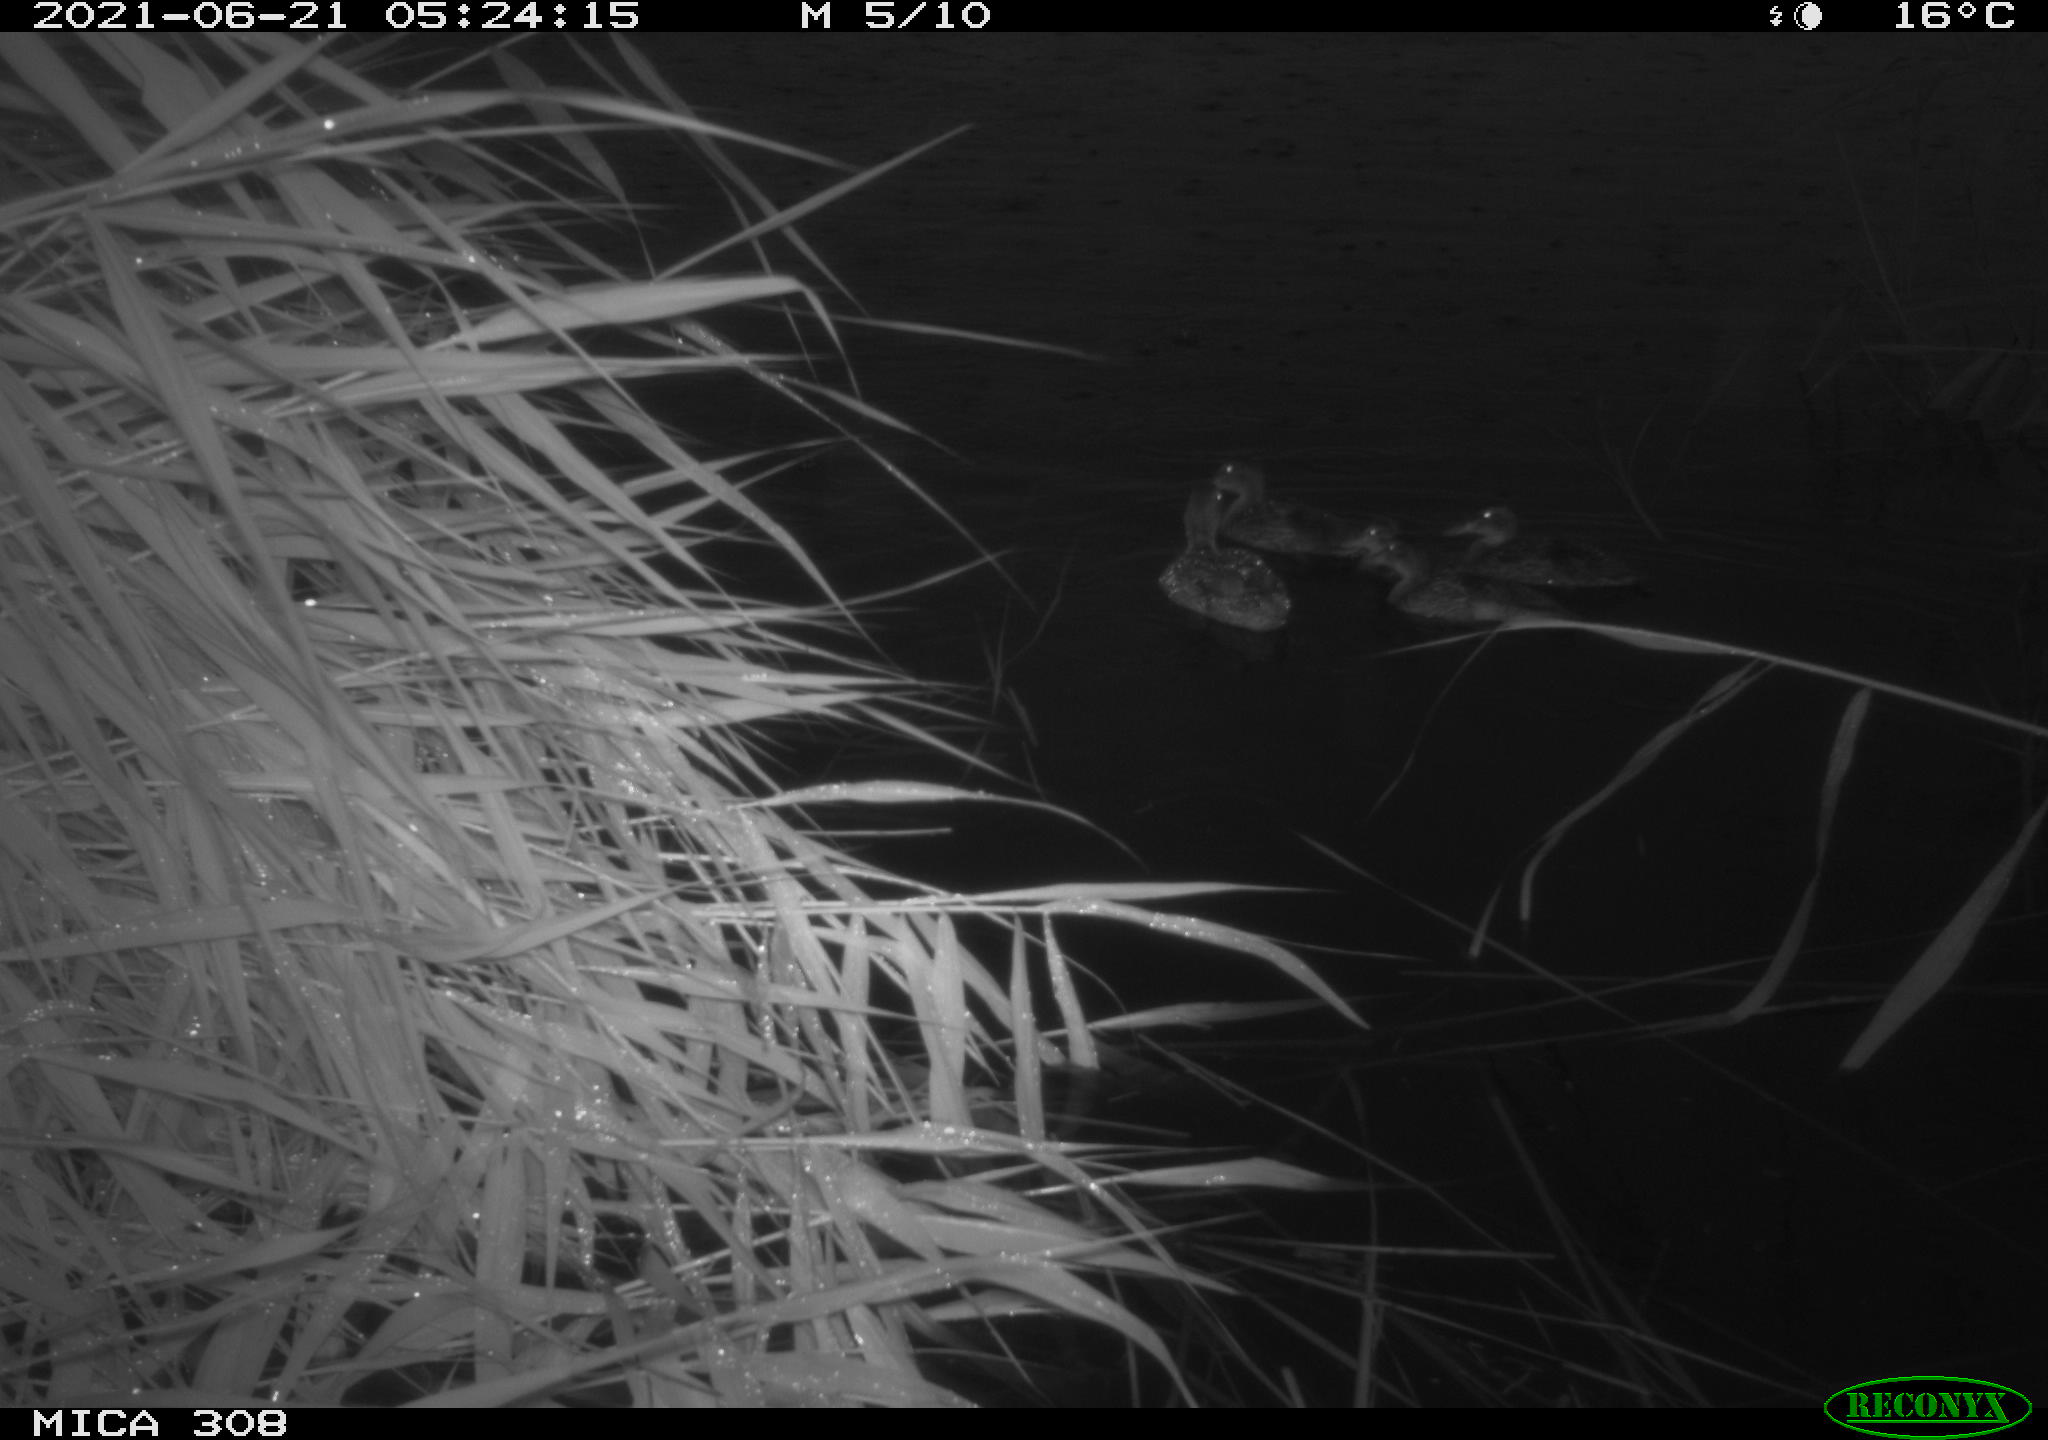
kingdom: Animalia
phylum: Chordata
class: Aves
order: Anseriformes
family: Anatidae
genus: Anas
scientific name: Anas platyrhynchos
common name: Mallard
